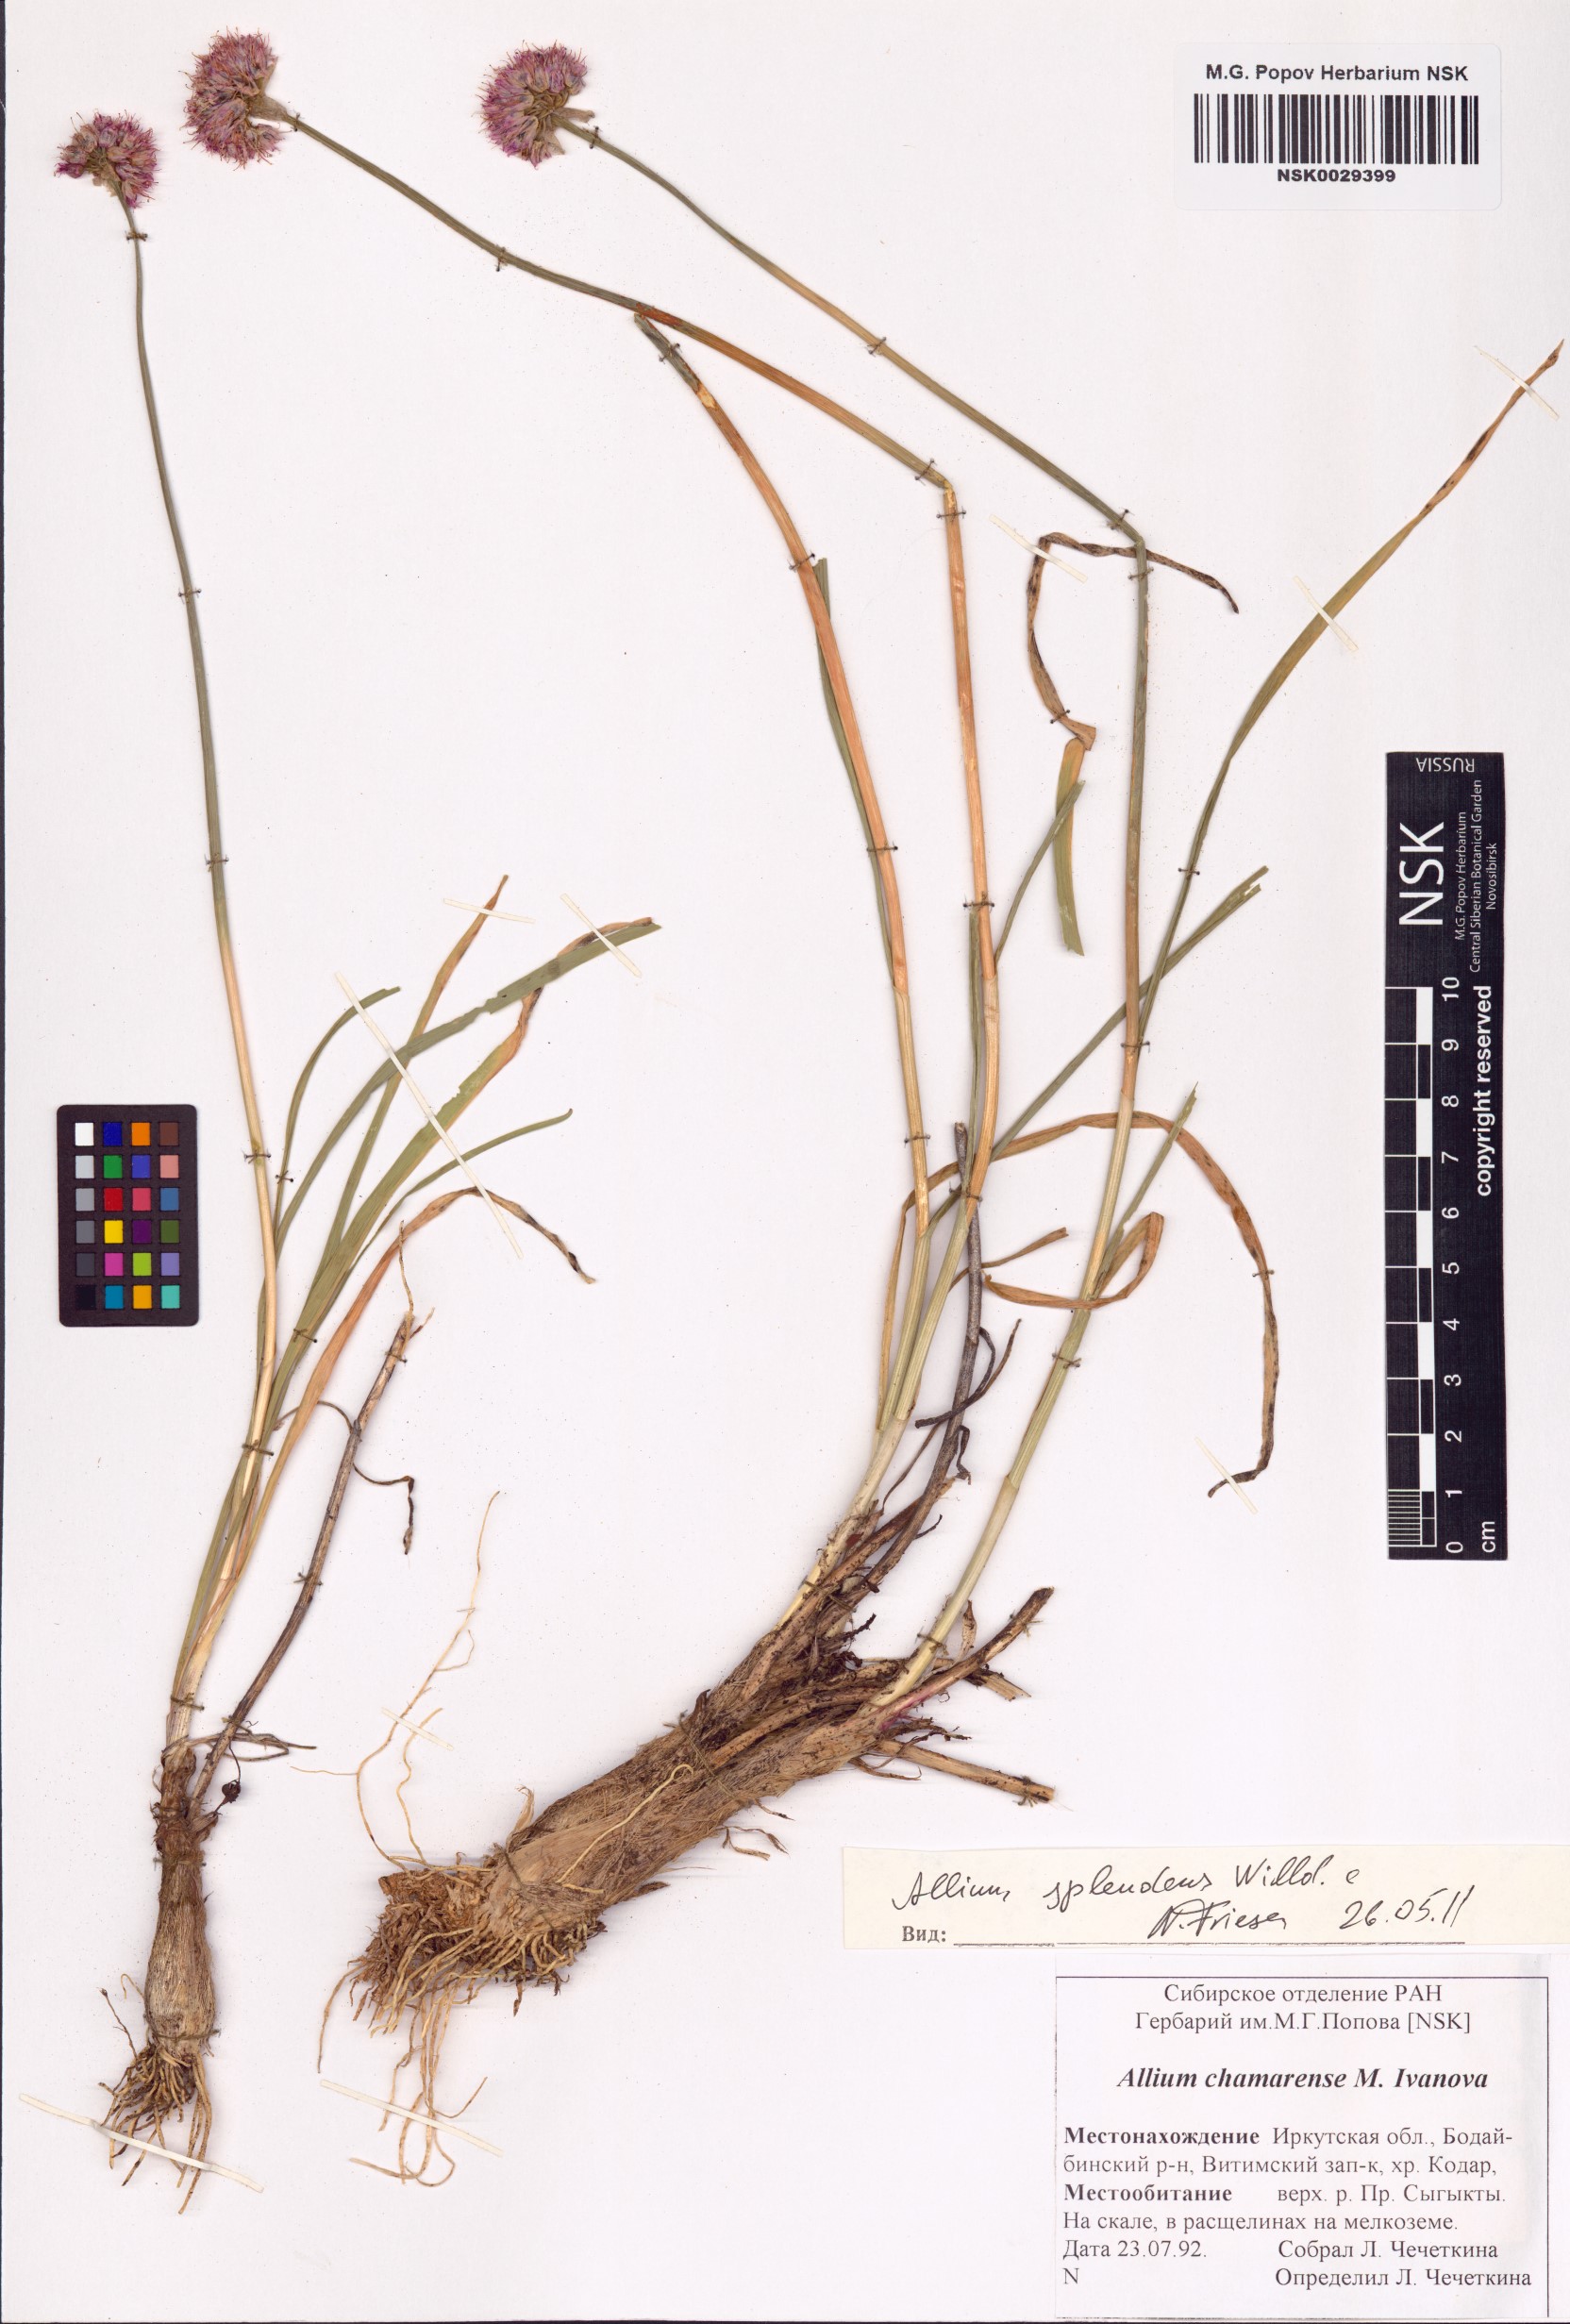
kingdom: Plantae
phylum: Tracheophyta
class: Liliopsida
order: Asparagales
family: Amaryllidaceae
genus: Allium
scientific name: Allium splendens
